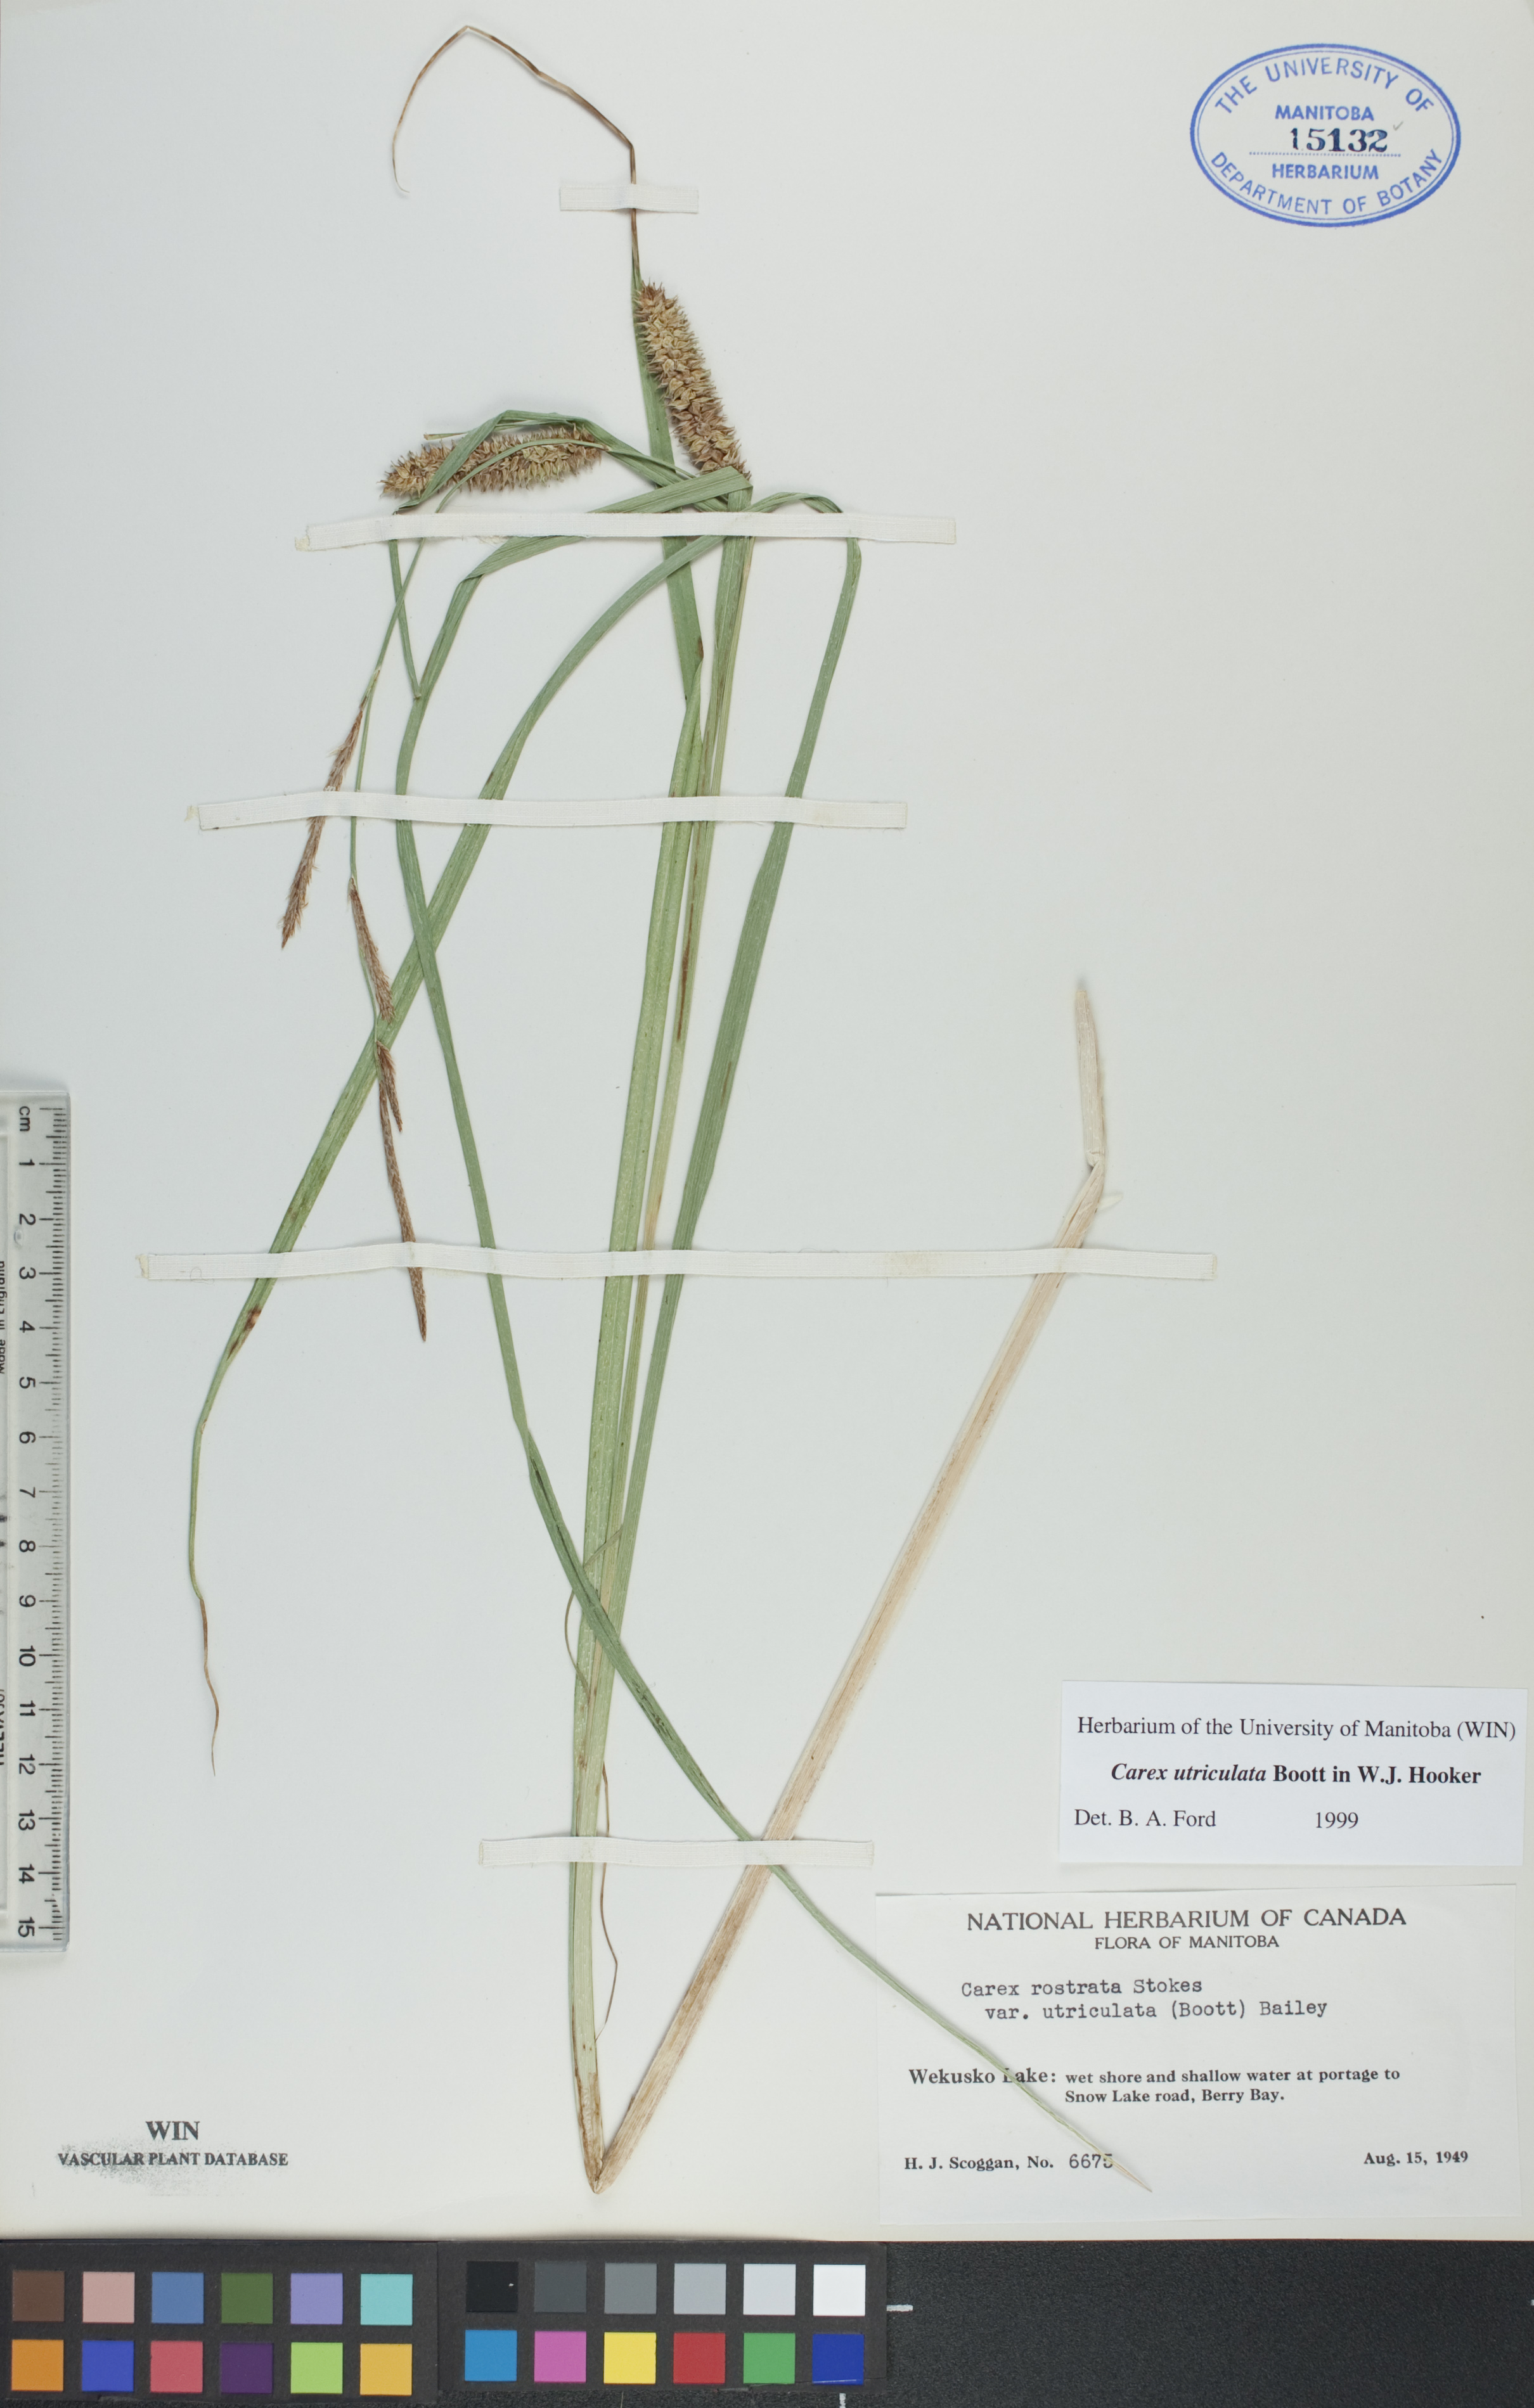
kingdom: Plantae
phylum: Tracheophyta
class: Liliopsida
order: Poales
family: Cyperaceae
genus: Carex
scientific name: Carex utriculata
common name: Beaked sedge
